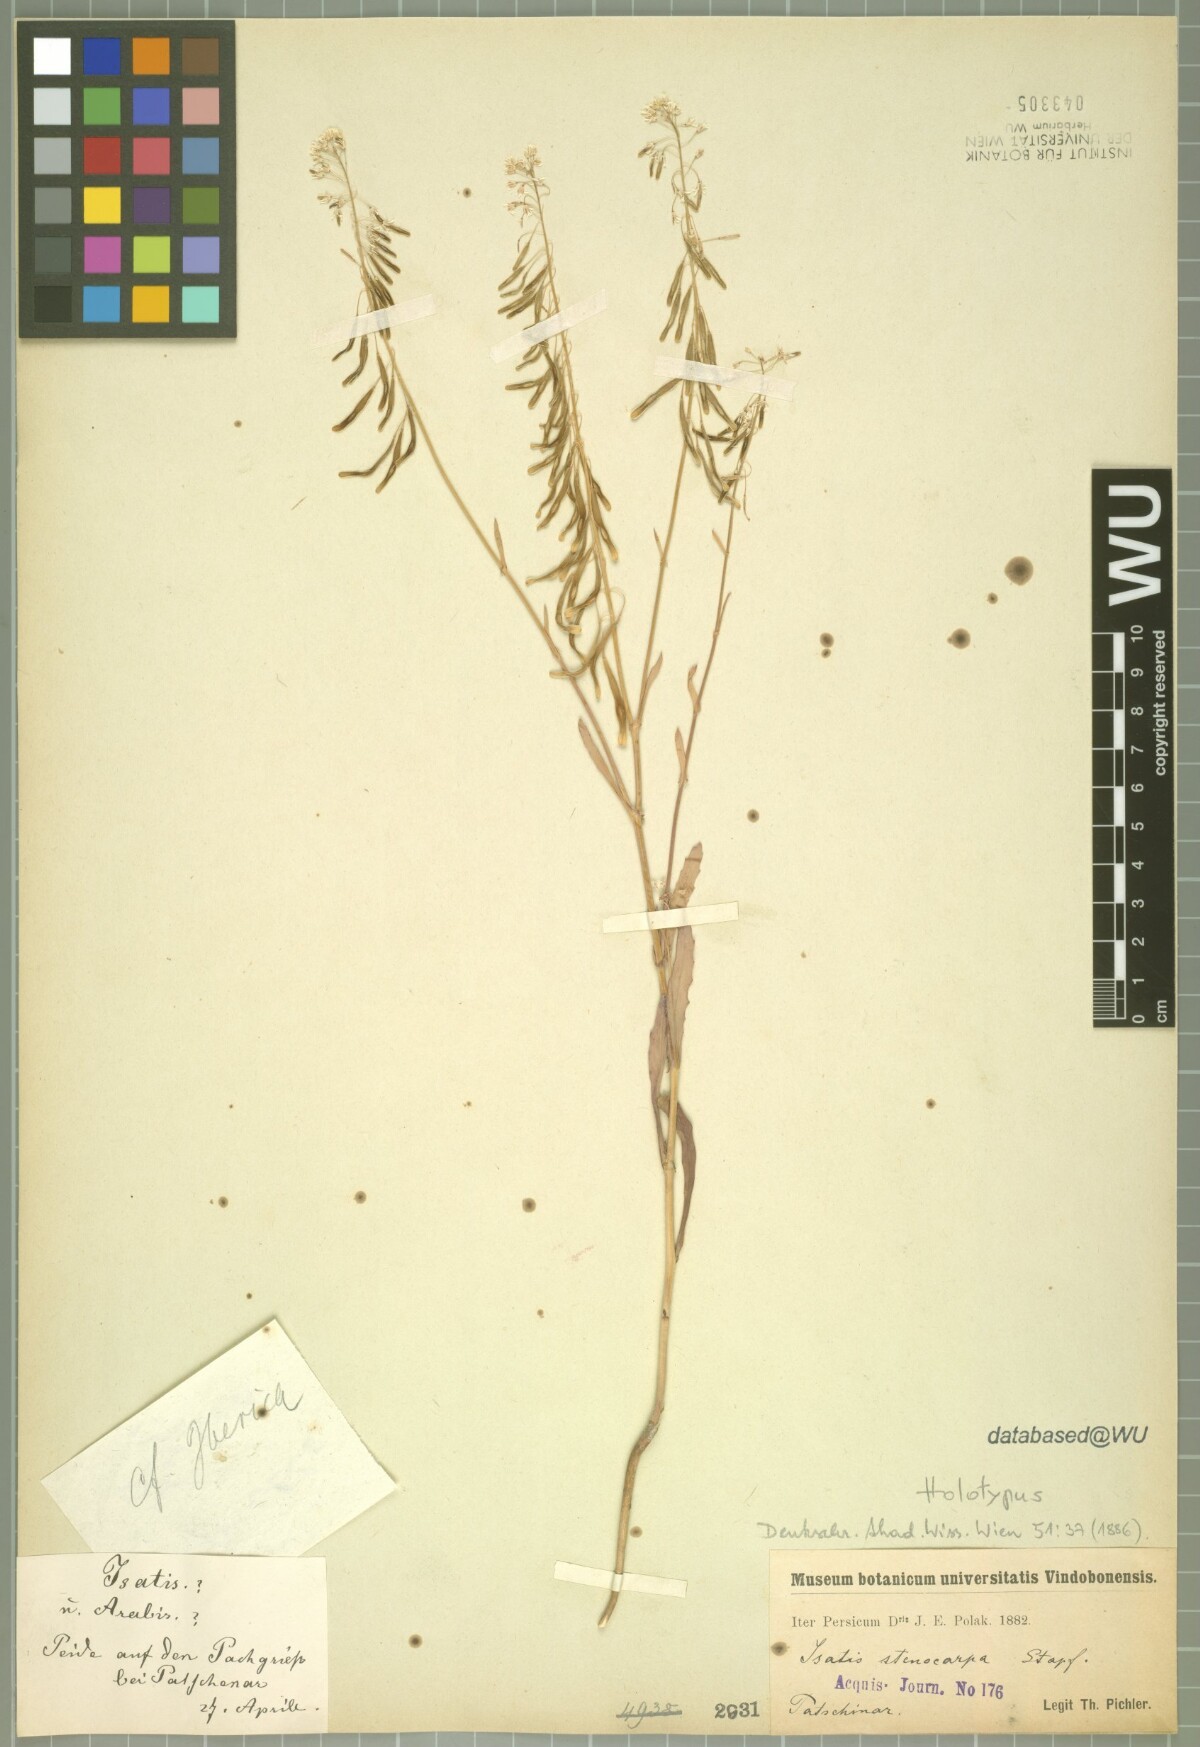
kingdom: Plantae
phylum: Tracheophyta
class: Magnoliopsida
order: Brassicales
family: Brassicaceae
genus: Isatis
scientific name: Isatis lusitanica
